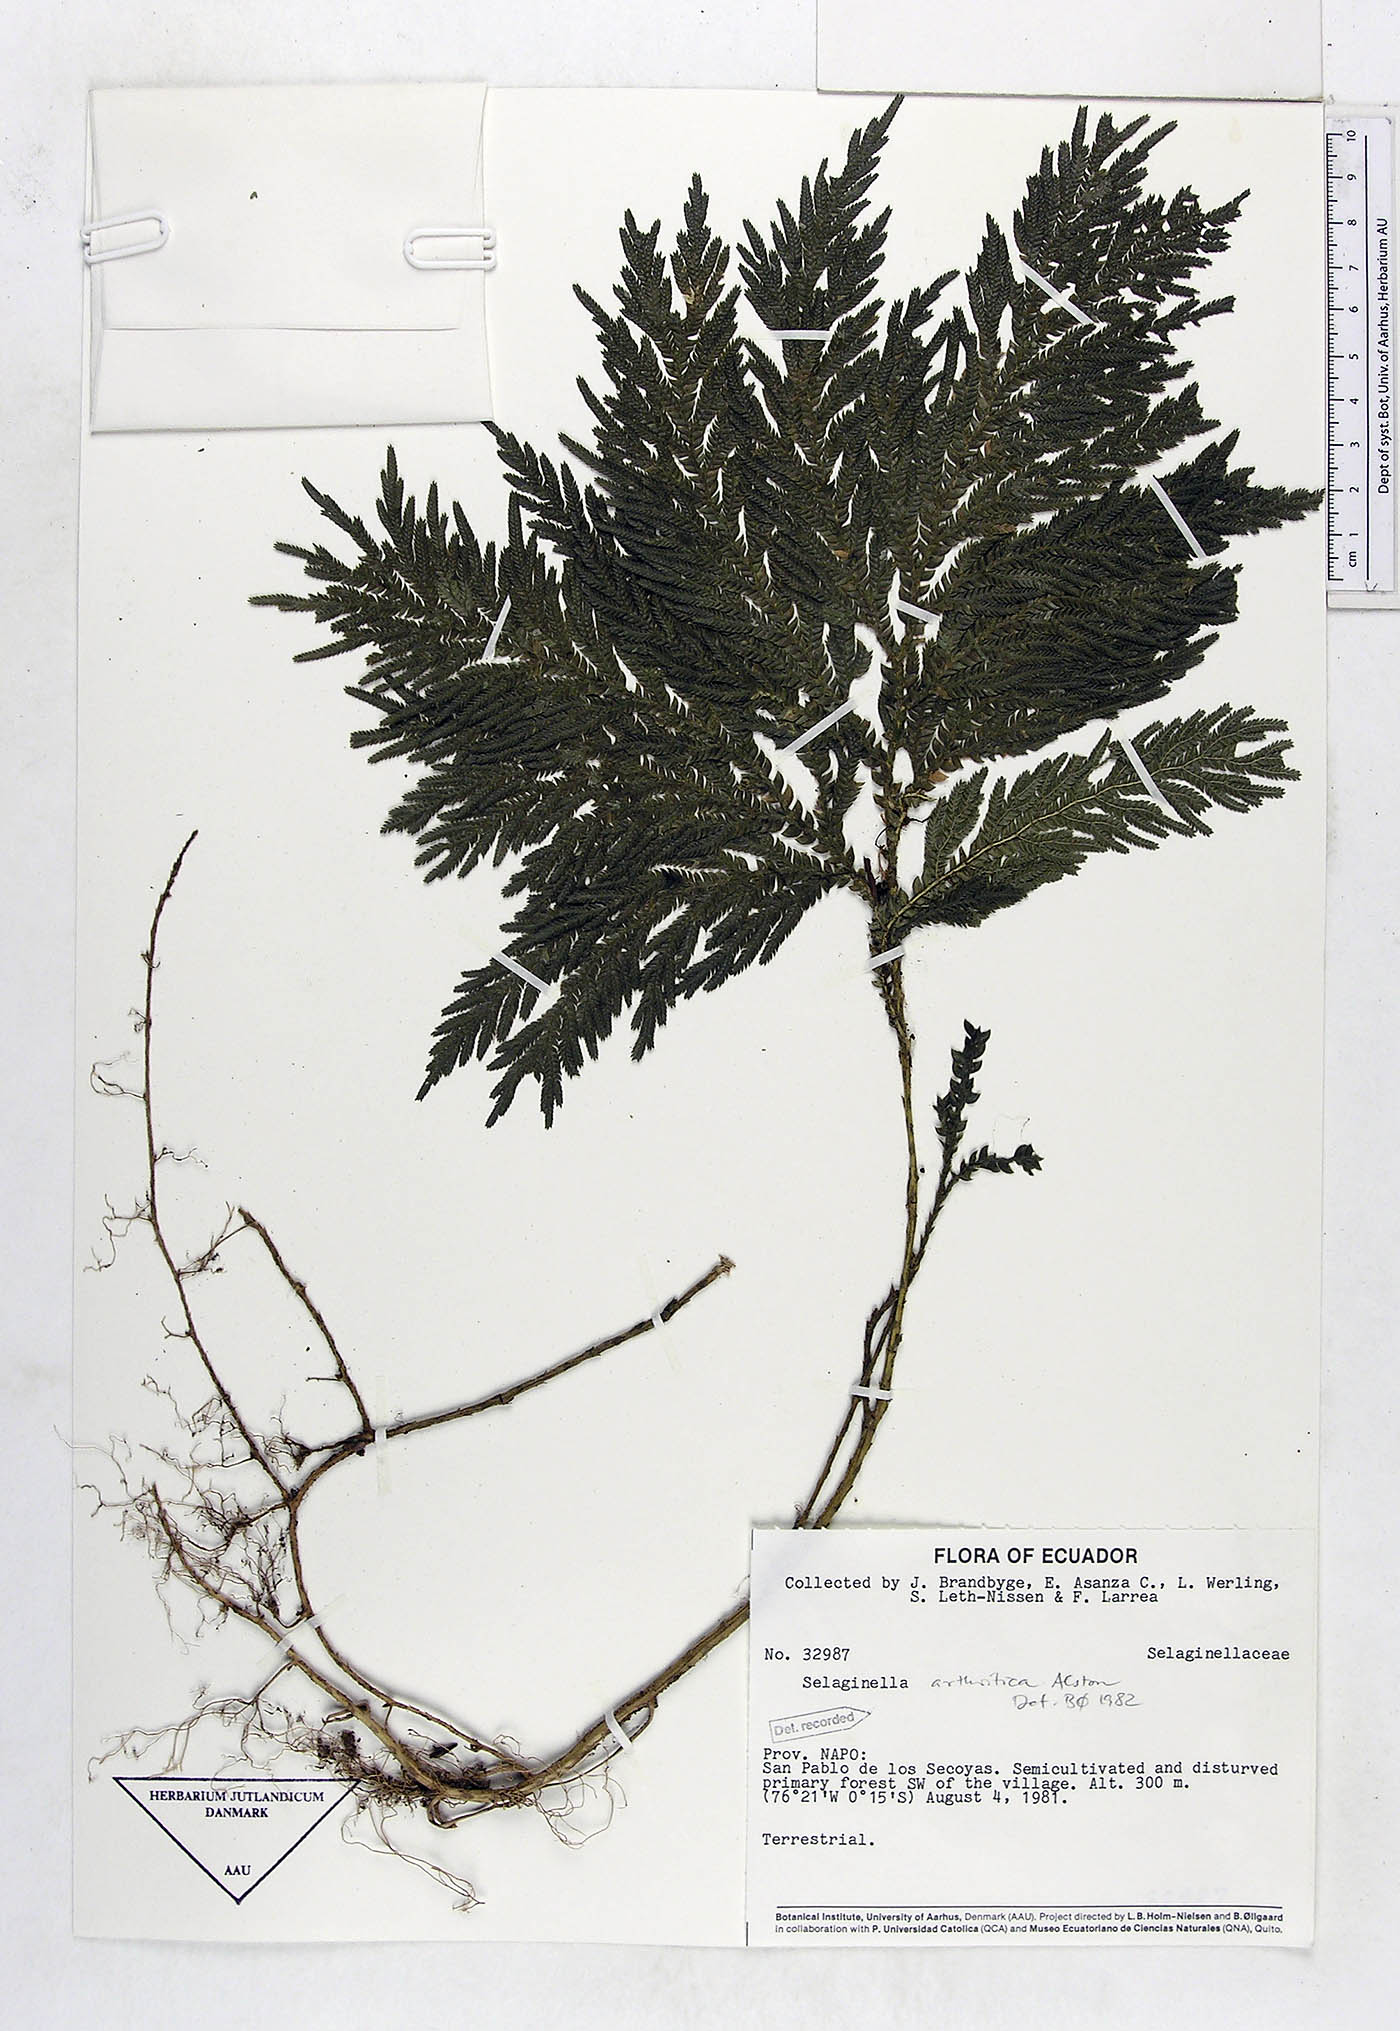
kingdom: Plantae
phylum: Tracheophyta
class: Lycopodiopsida
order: Selaginellales
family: Selaginellaceae
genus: Selaginella
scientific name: Selaginella arthritica
